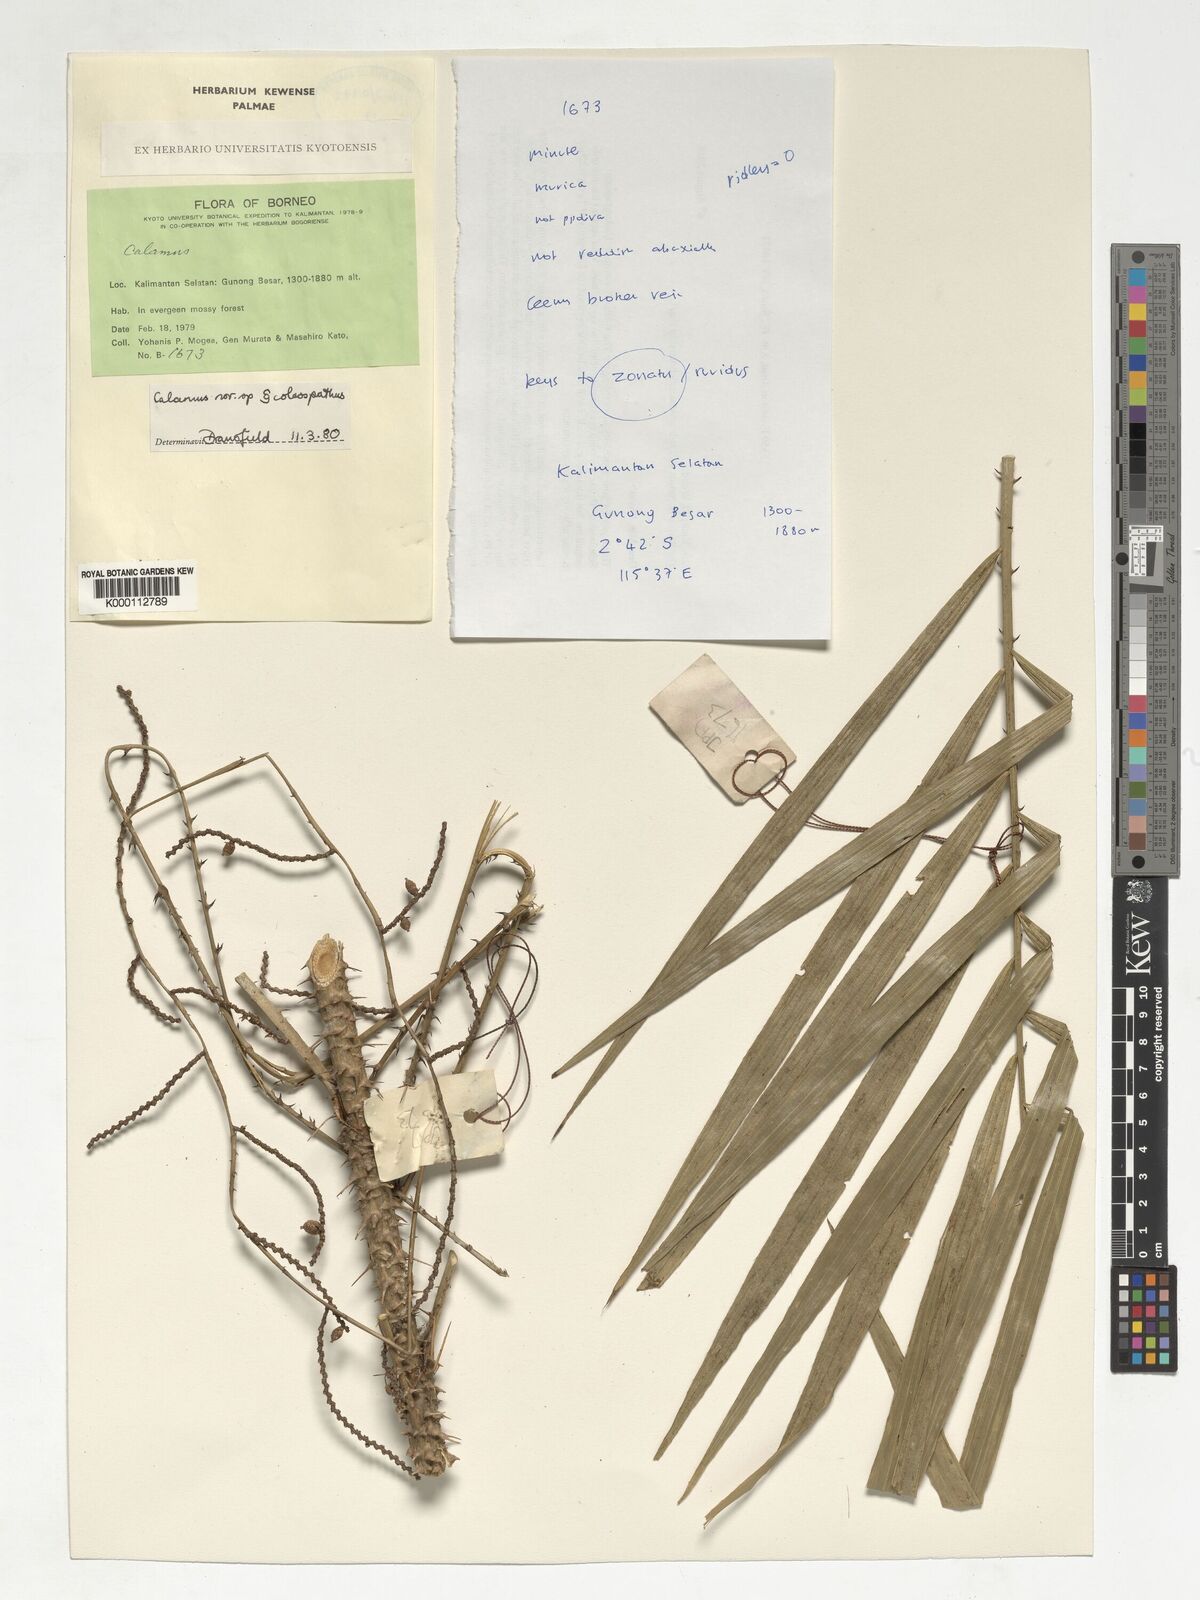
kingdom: Plantae
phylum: Tracheophyta
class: Liliopsida
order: Arecales
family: Arecaceae
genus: Calamus
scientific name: Calamus zonatus
